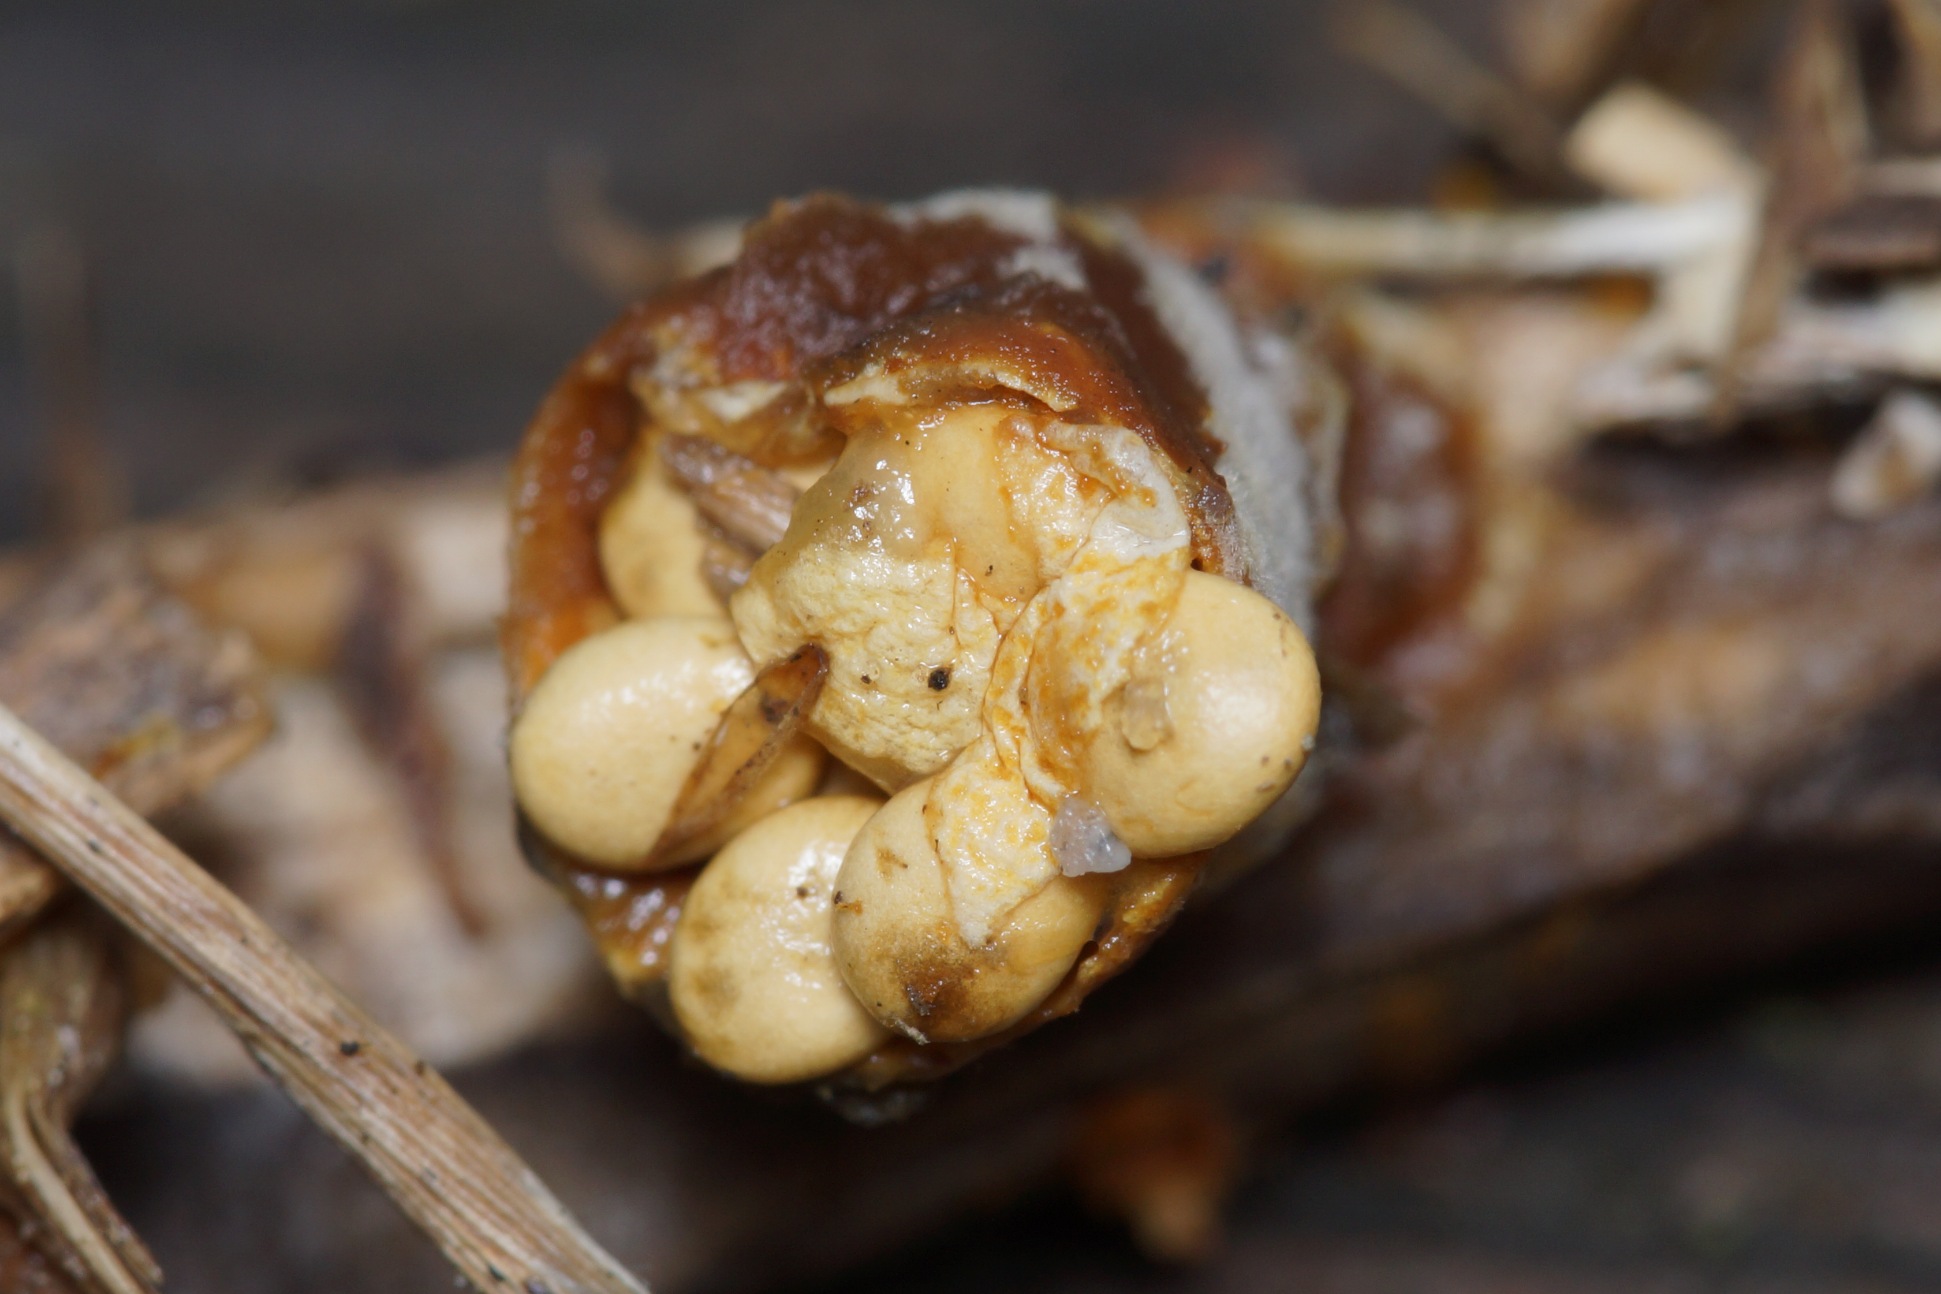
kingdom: Fungi
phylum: Basidiomycota
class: Agaricomycetes
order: Agaricales
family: Nidulariaceae
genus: Crucibulum
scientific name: Crucibulum crucibuliforme
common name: Krukkesvamp
